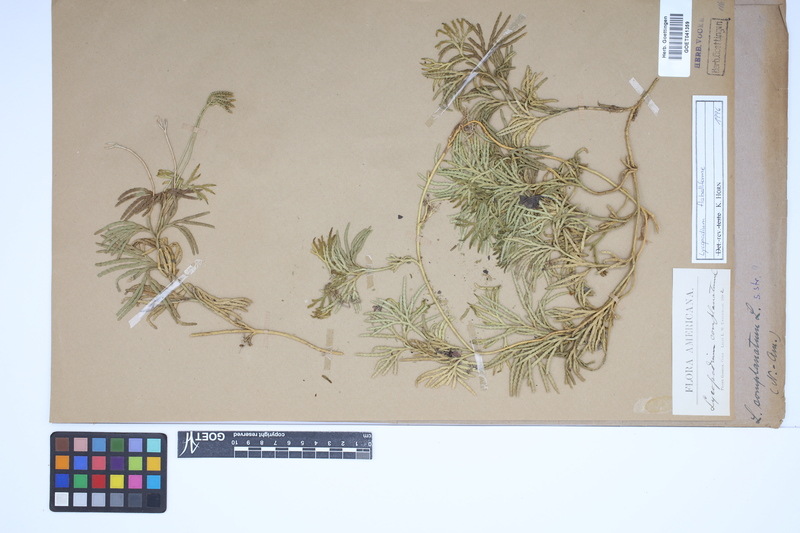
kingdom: Plantae
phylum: Tracheophyta
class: Lycopodiopsida
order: Lycopodiales
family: Lycopodiaceae
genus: Diphasiastrum
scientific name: Diphasiastrum digitatum
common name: Southern running-pine
